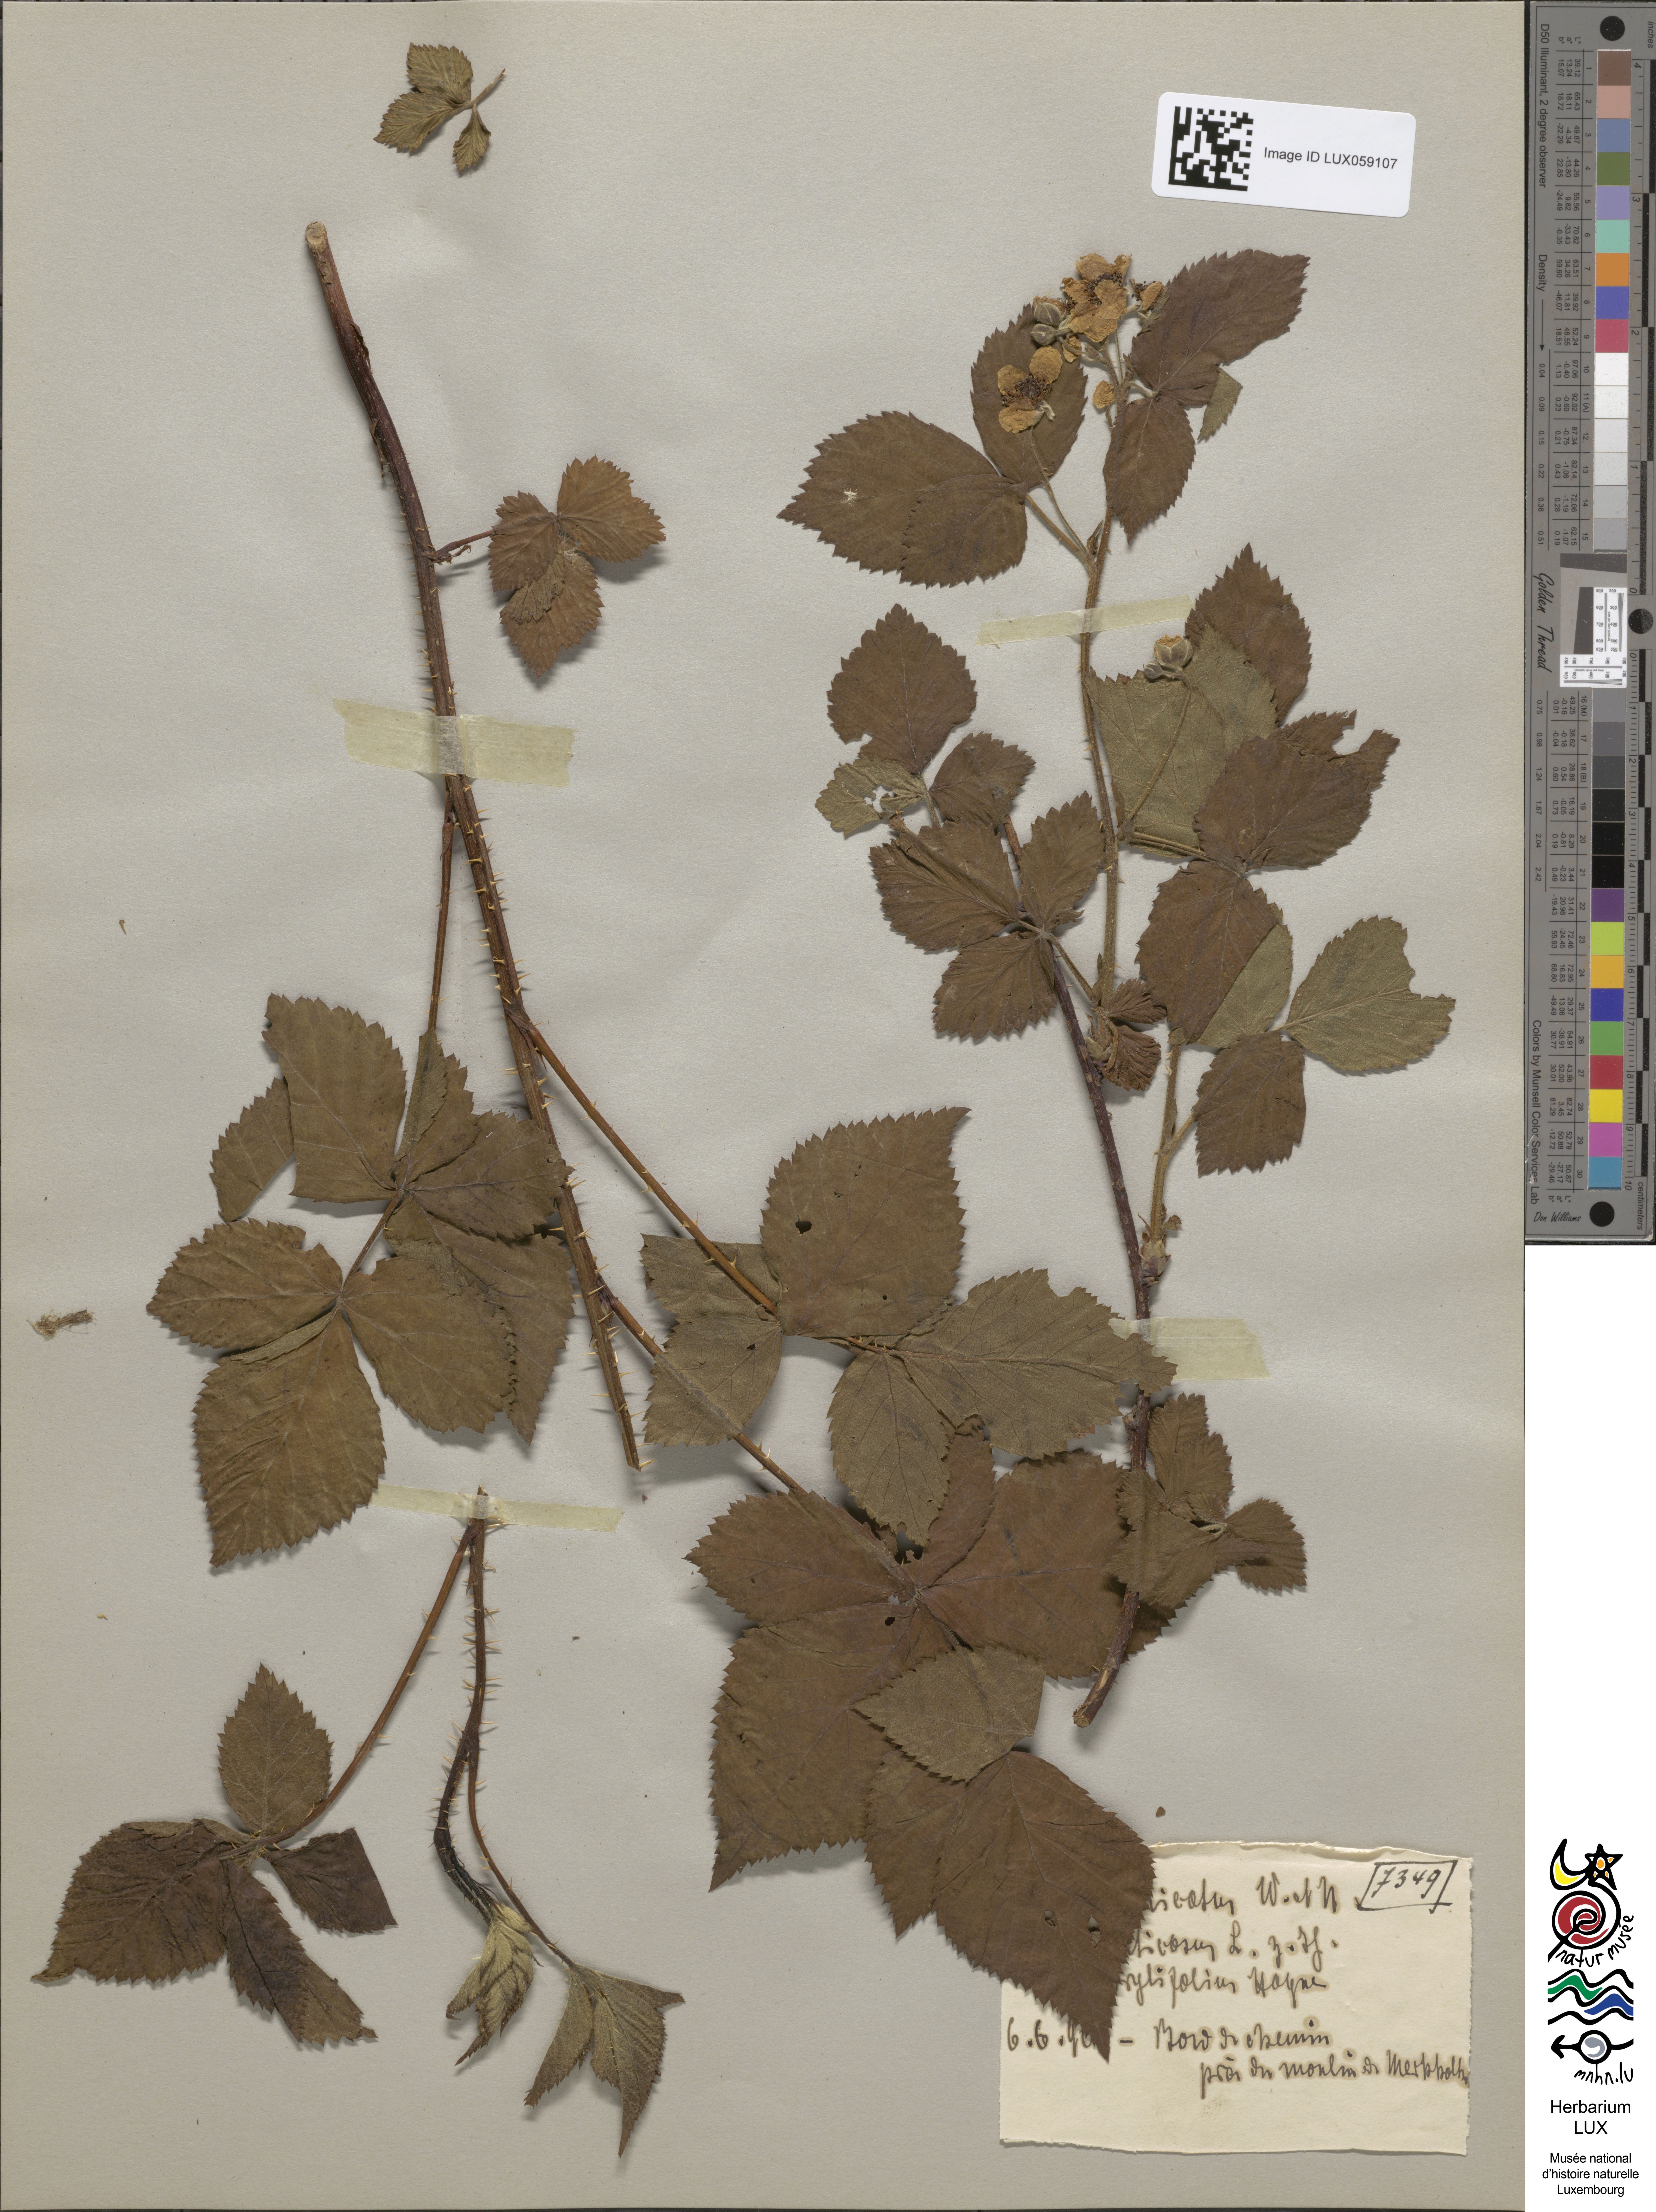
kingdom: Plantae
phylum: Tracheophyta
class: Magnoliopsida
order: Rosales
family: Rosaceae
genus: Rubus
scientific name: Rubus plicatus
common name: Plaited-leaved bramble
